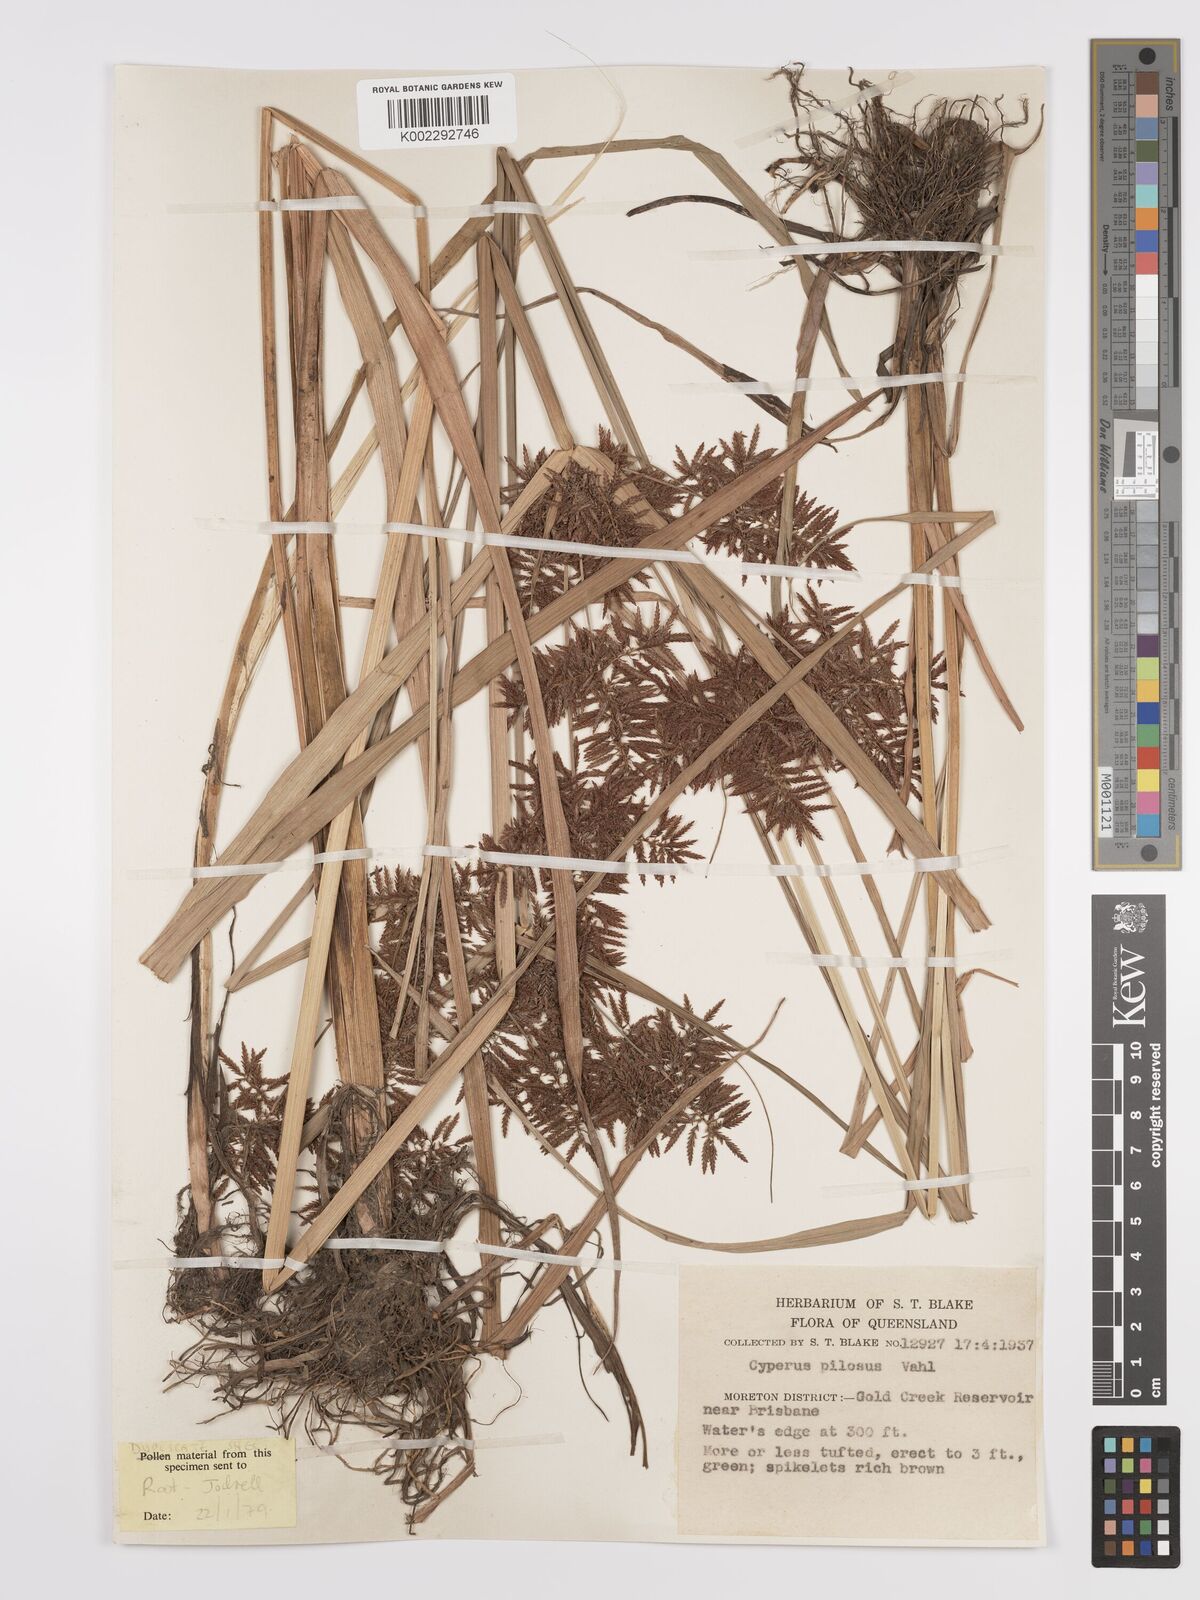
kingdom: Plantae
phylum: Tracheophyta
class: Liliopsida
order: Poales
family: Cyperaceae
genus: Cyperus
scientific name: Cyperus pilosus
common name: Fuzzy flatsedge
